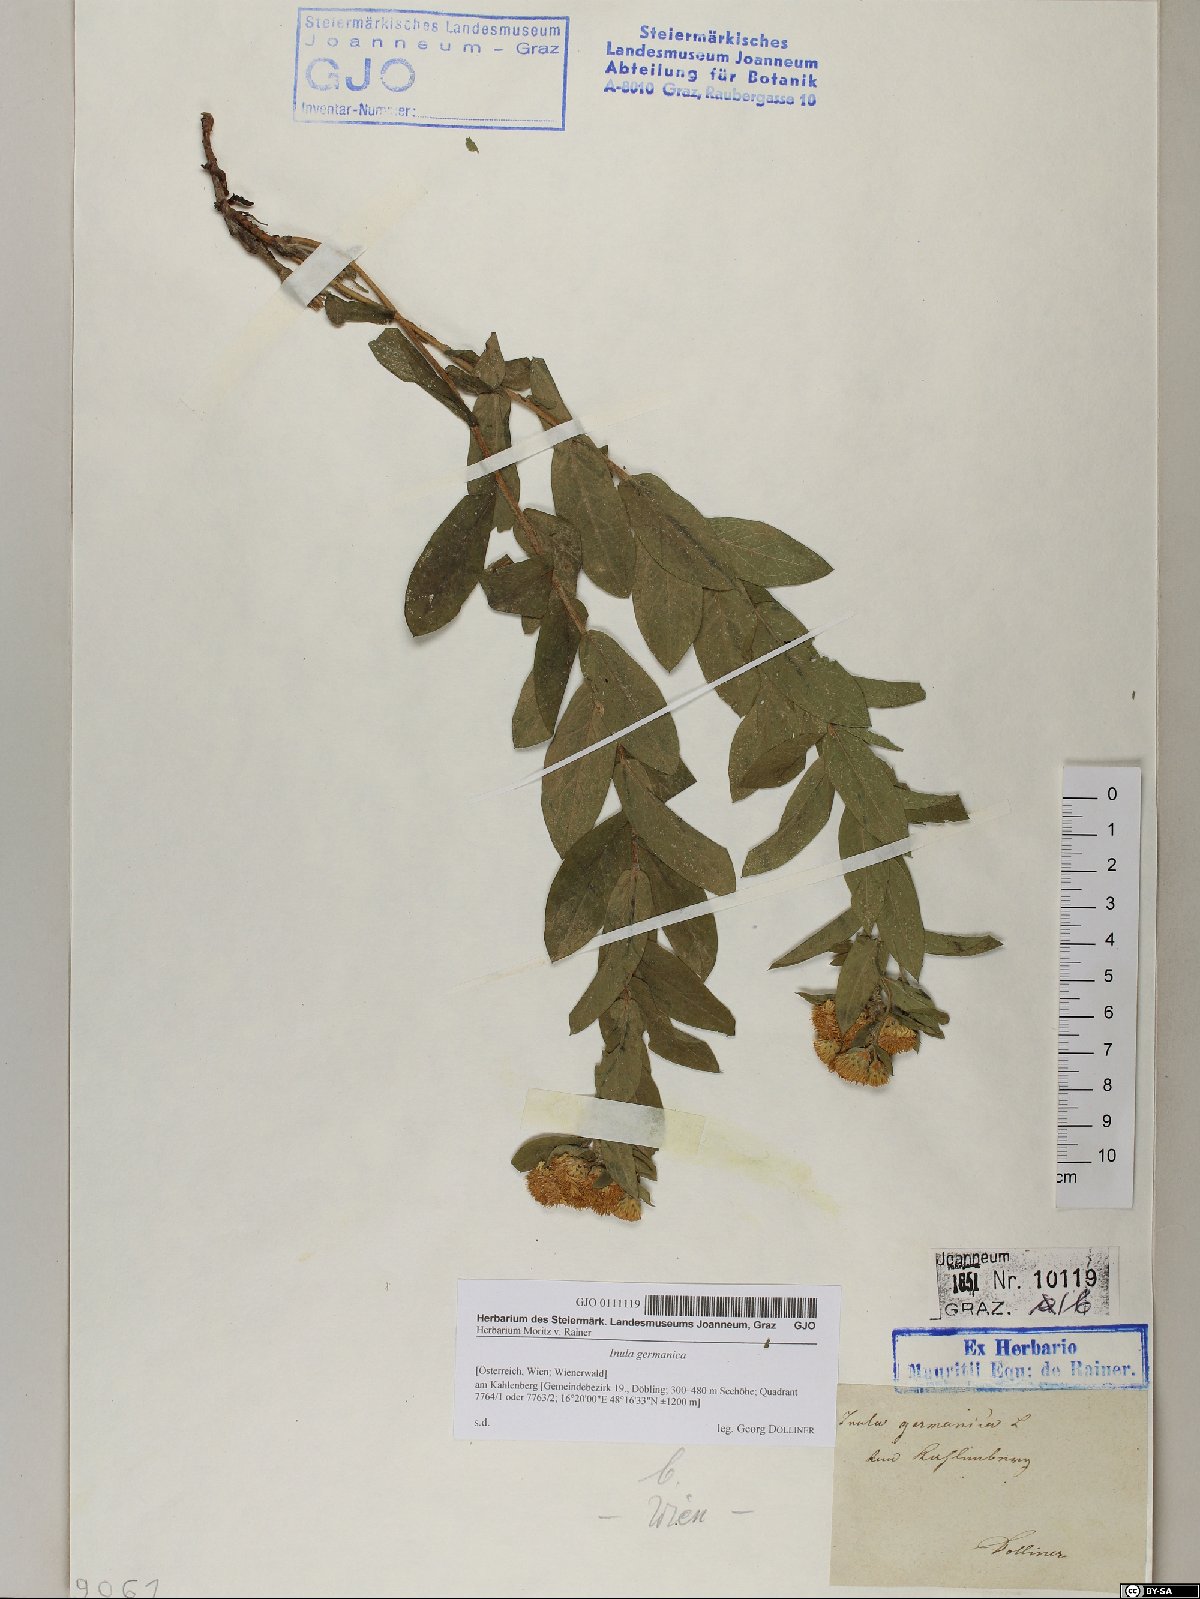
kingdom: Plantae
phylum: Tracheophyta
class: Magnoliopsida
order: Asterales
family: Asteraceae
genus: Pentanema
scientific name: Pentanema germanicum
